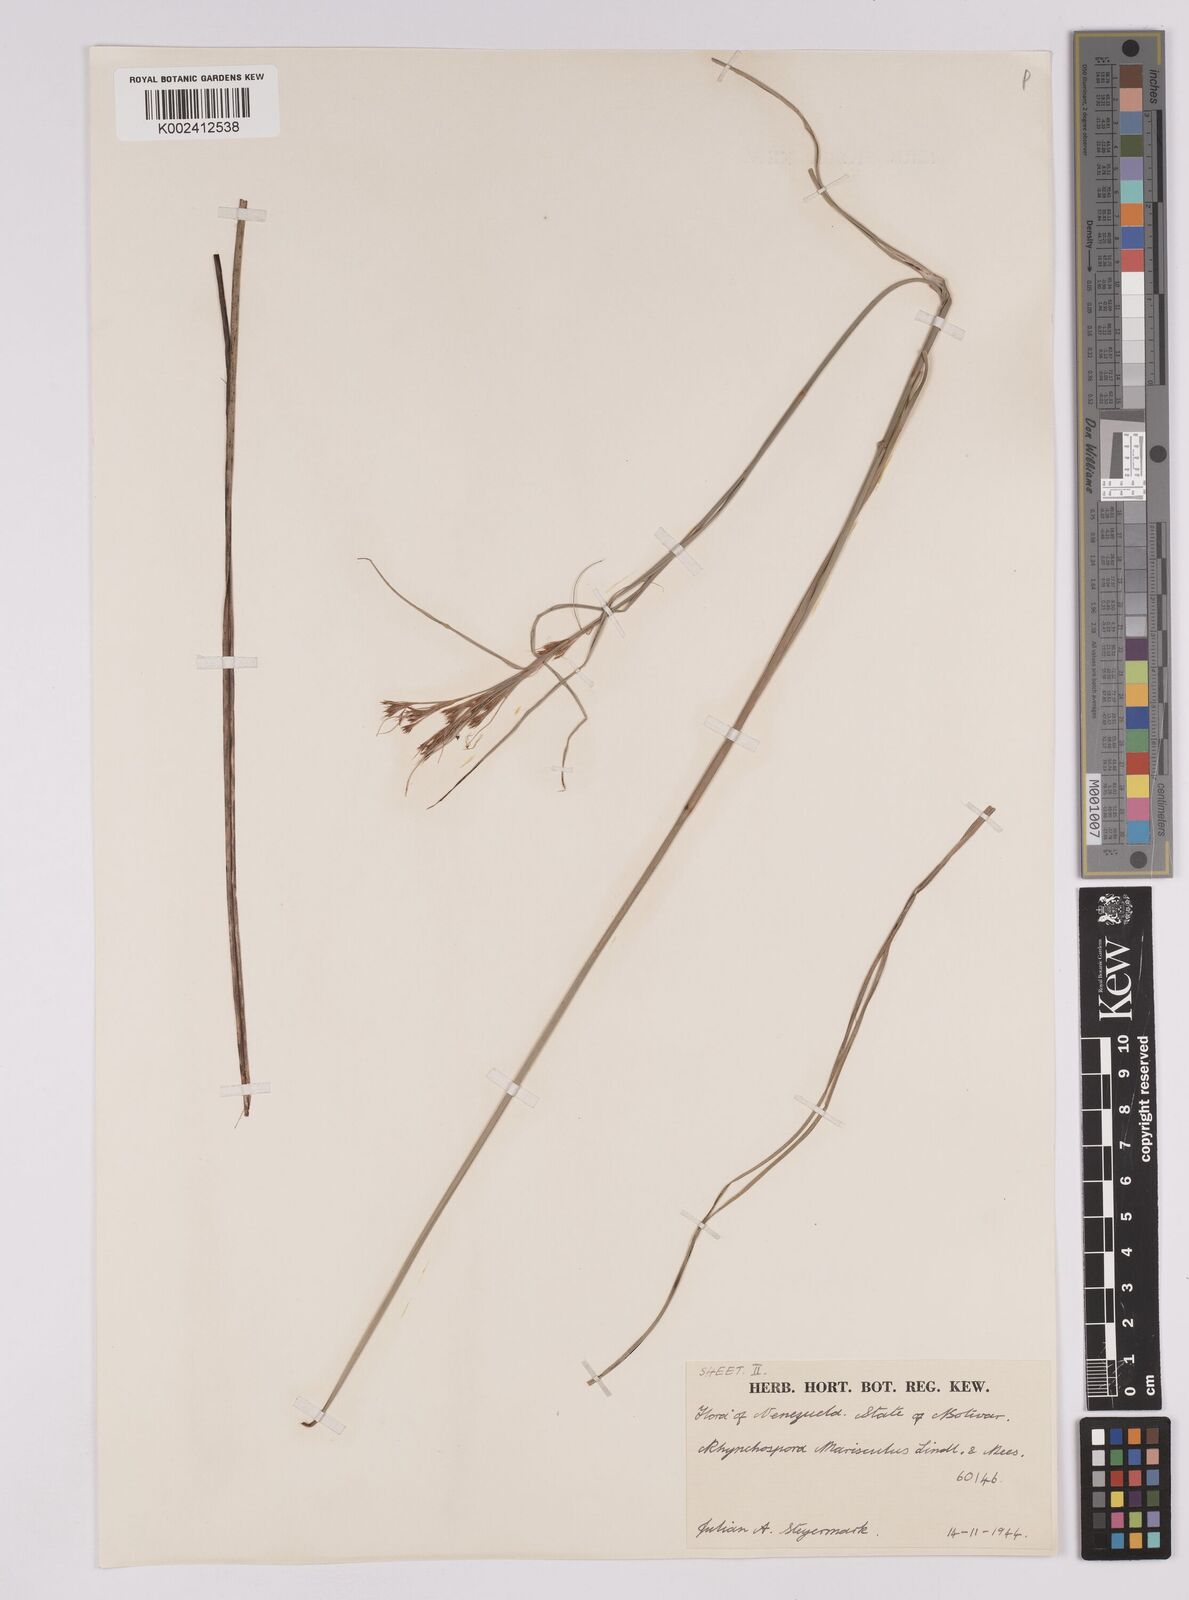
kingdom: Plantae
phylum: Tracheophyta
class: Liliopsida
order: Poales
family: Cyperaceae
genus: Rhynchospora
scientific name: Rhynchospora marisculus
